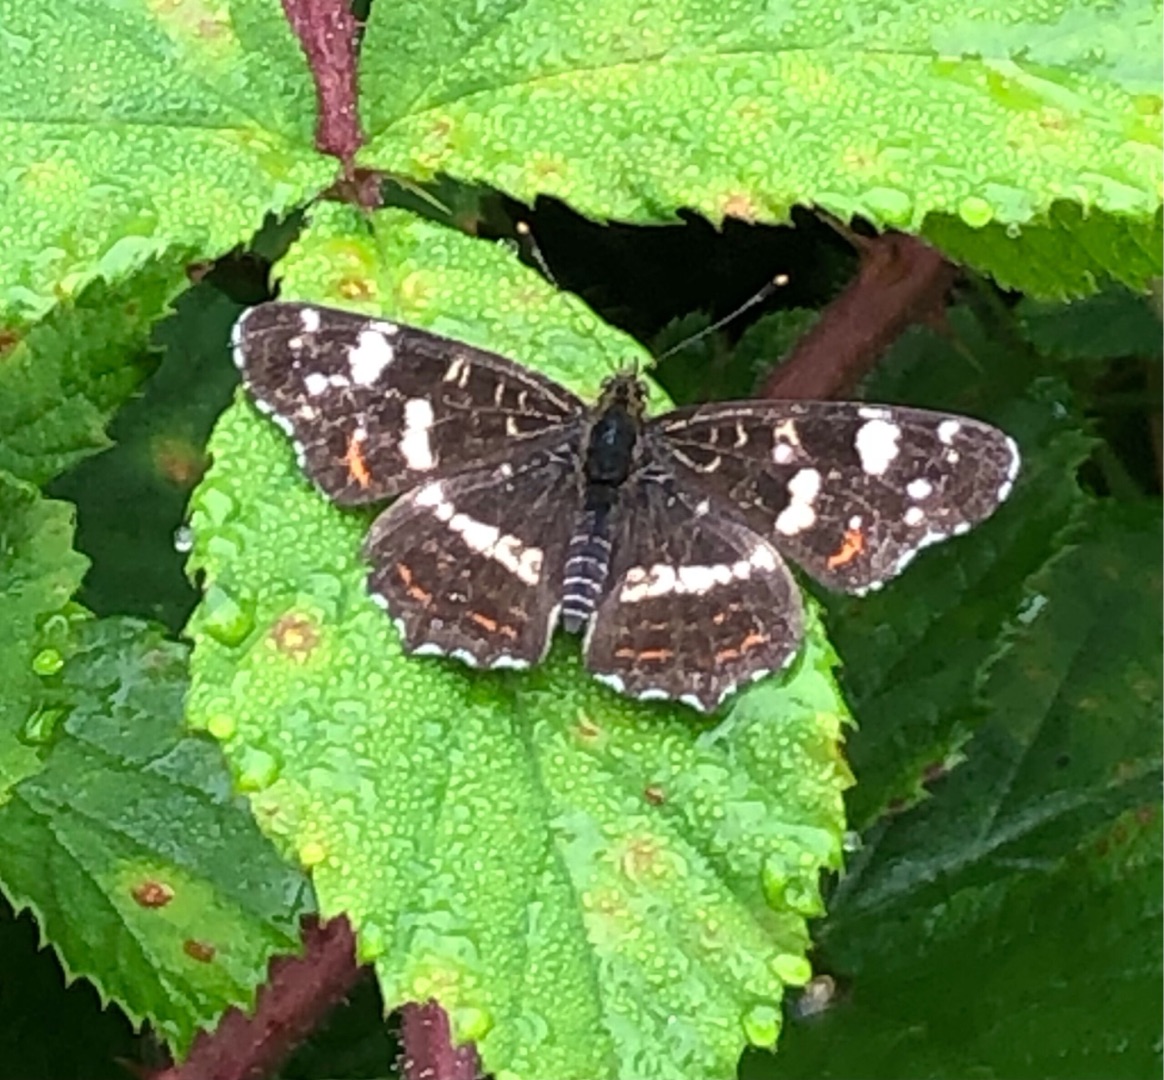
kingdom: Animalia
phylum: Arthropoda
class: Insecta
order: Lepidoptera
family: Nymphalidae
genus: Araschnia
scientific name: Araschnia levana
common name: Nældesommerfugl
